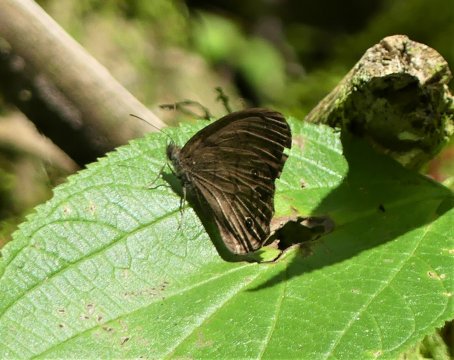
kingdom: Animalia
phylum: Arthropoda
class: Insecta
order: Lepidoptera
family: Nymphalidae
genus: Hermeuptychia
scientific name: Hermeuptychia
